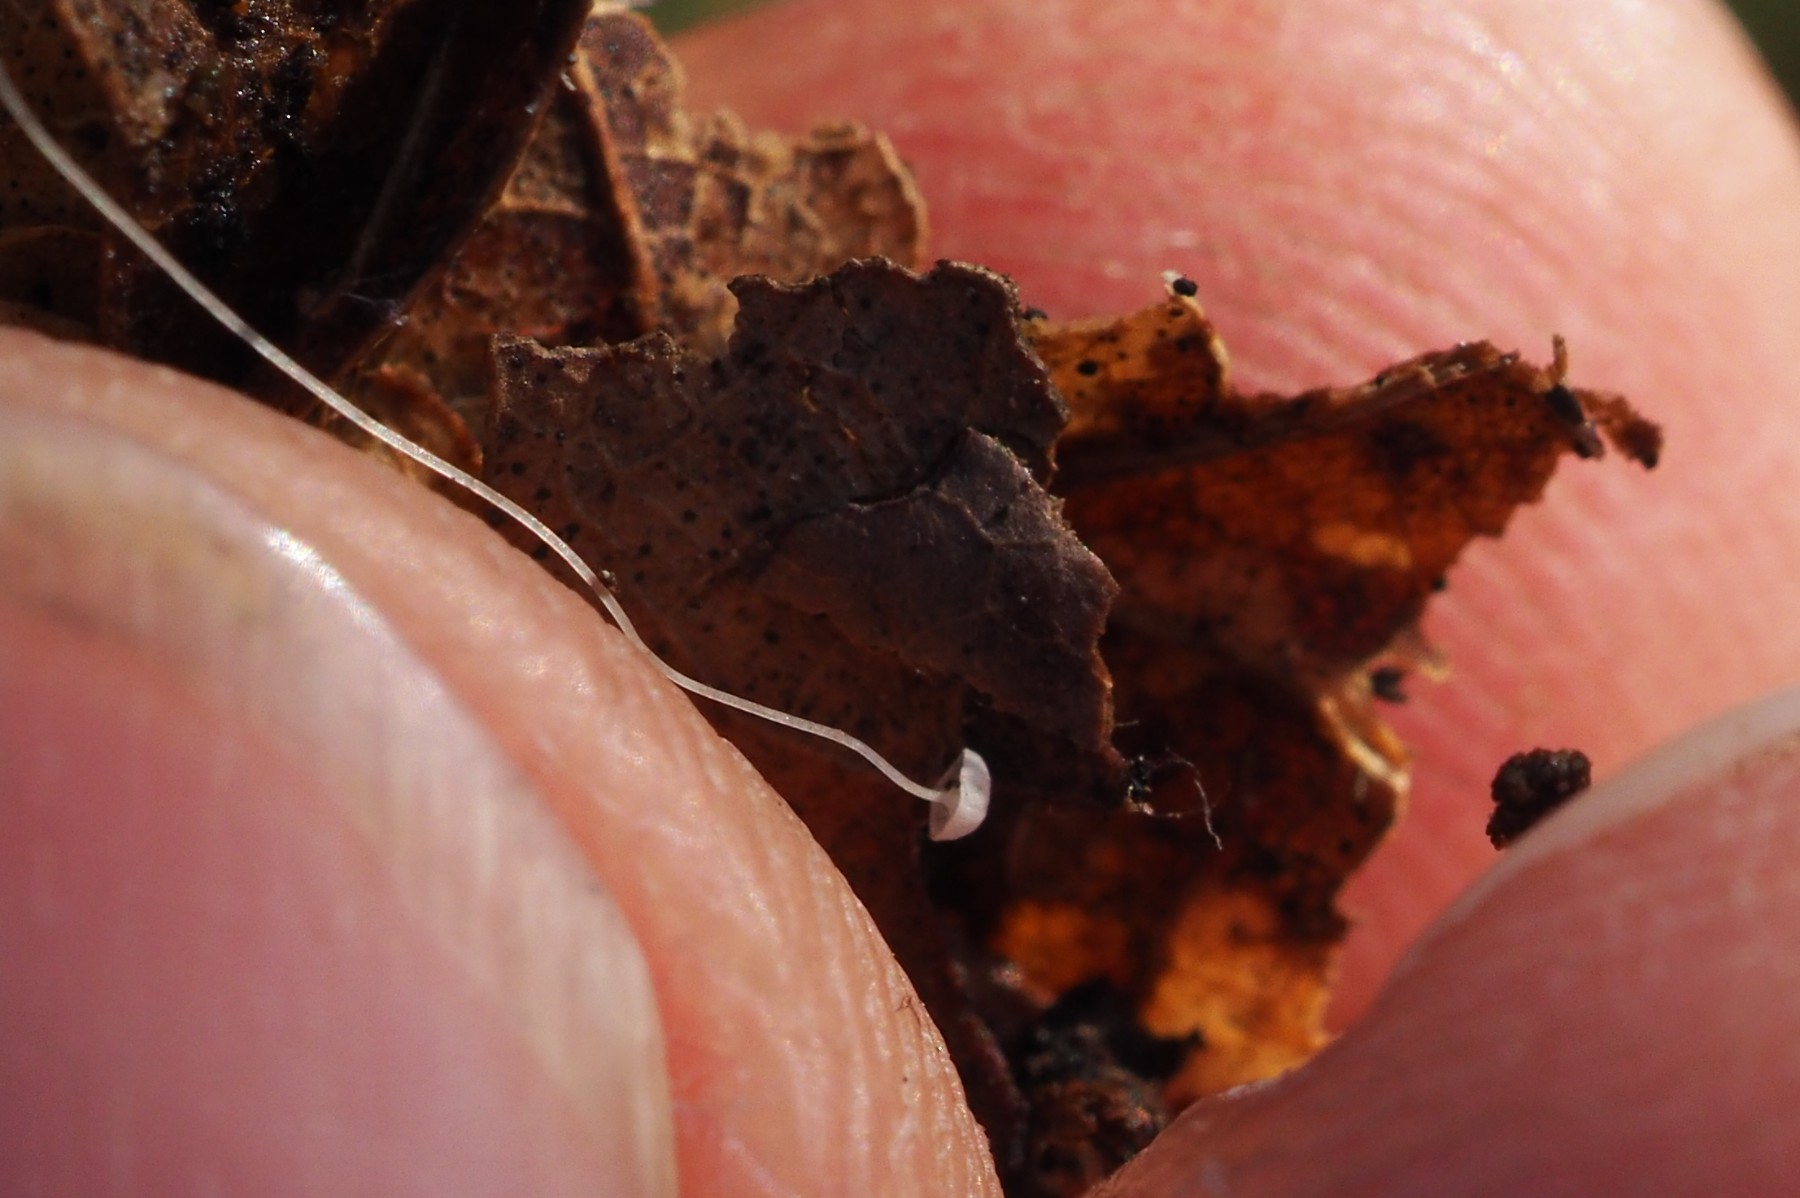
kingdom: Fungi
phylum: Basidiomycota
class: Agaricomycetes
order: Agaricales
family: Mycenaceae
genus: Mycena
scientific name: Mycena polyadelpha
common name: egeblads-huesvamp
